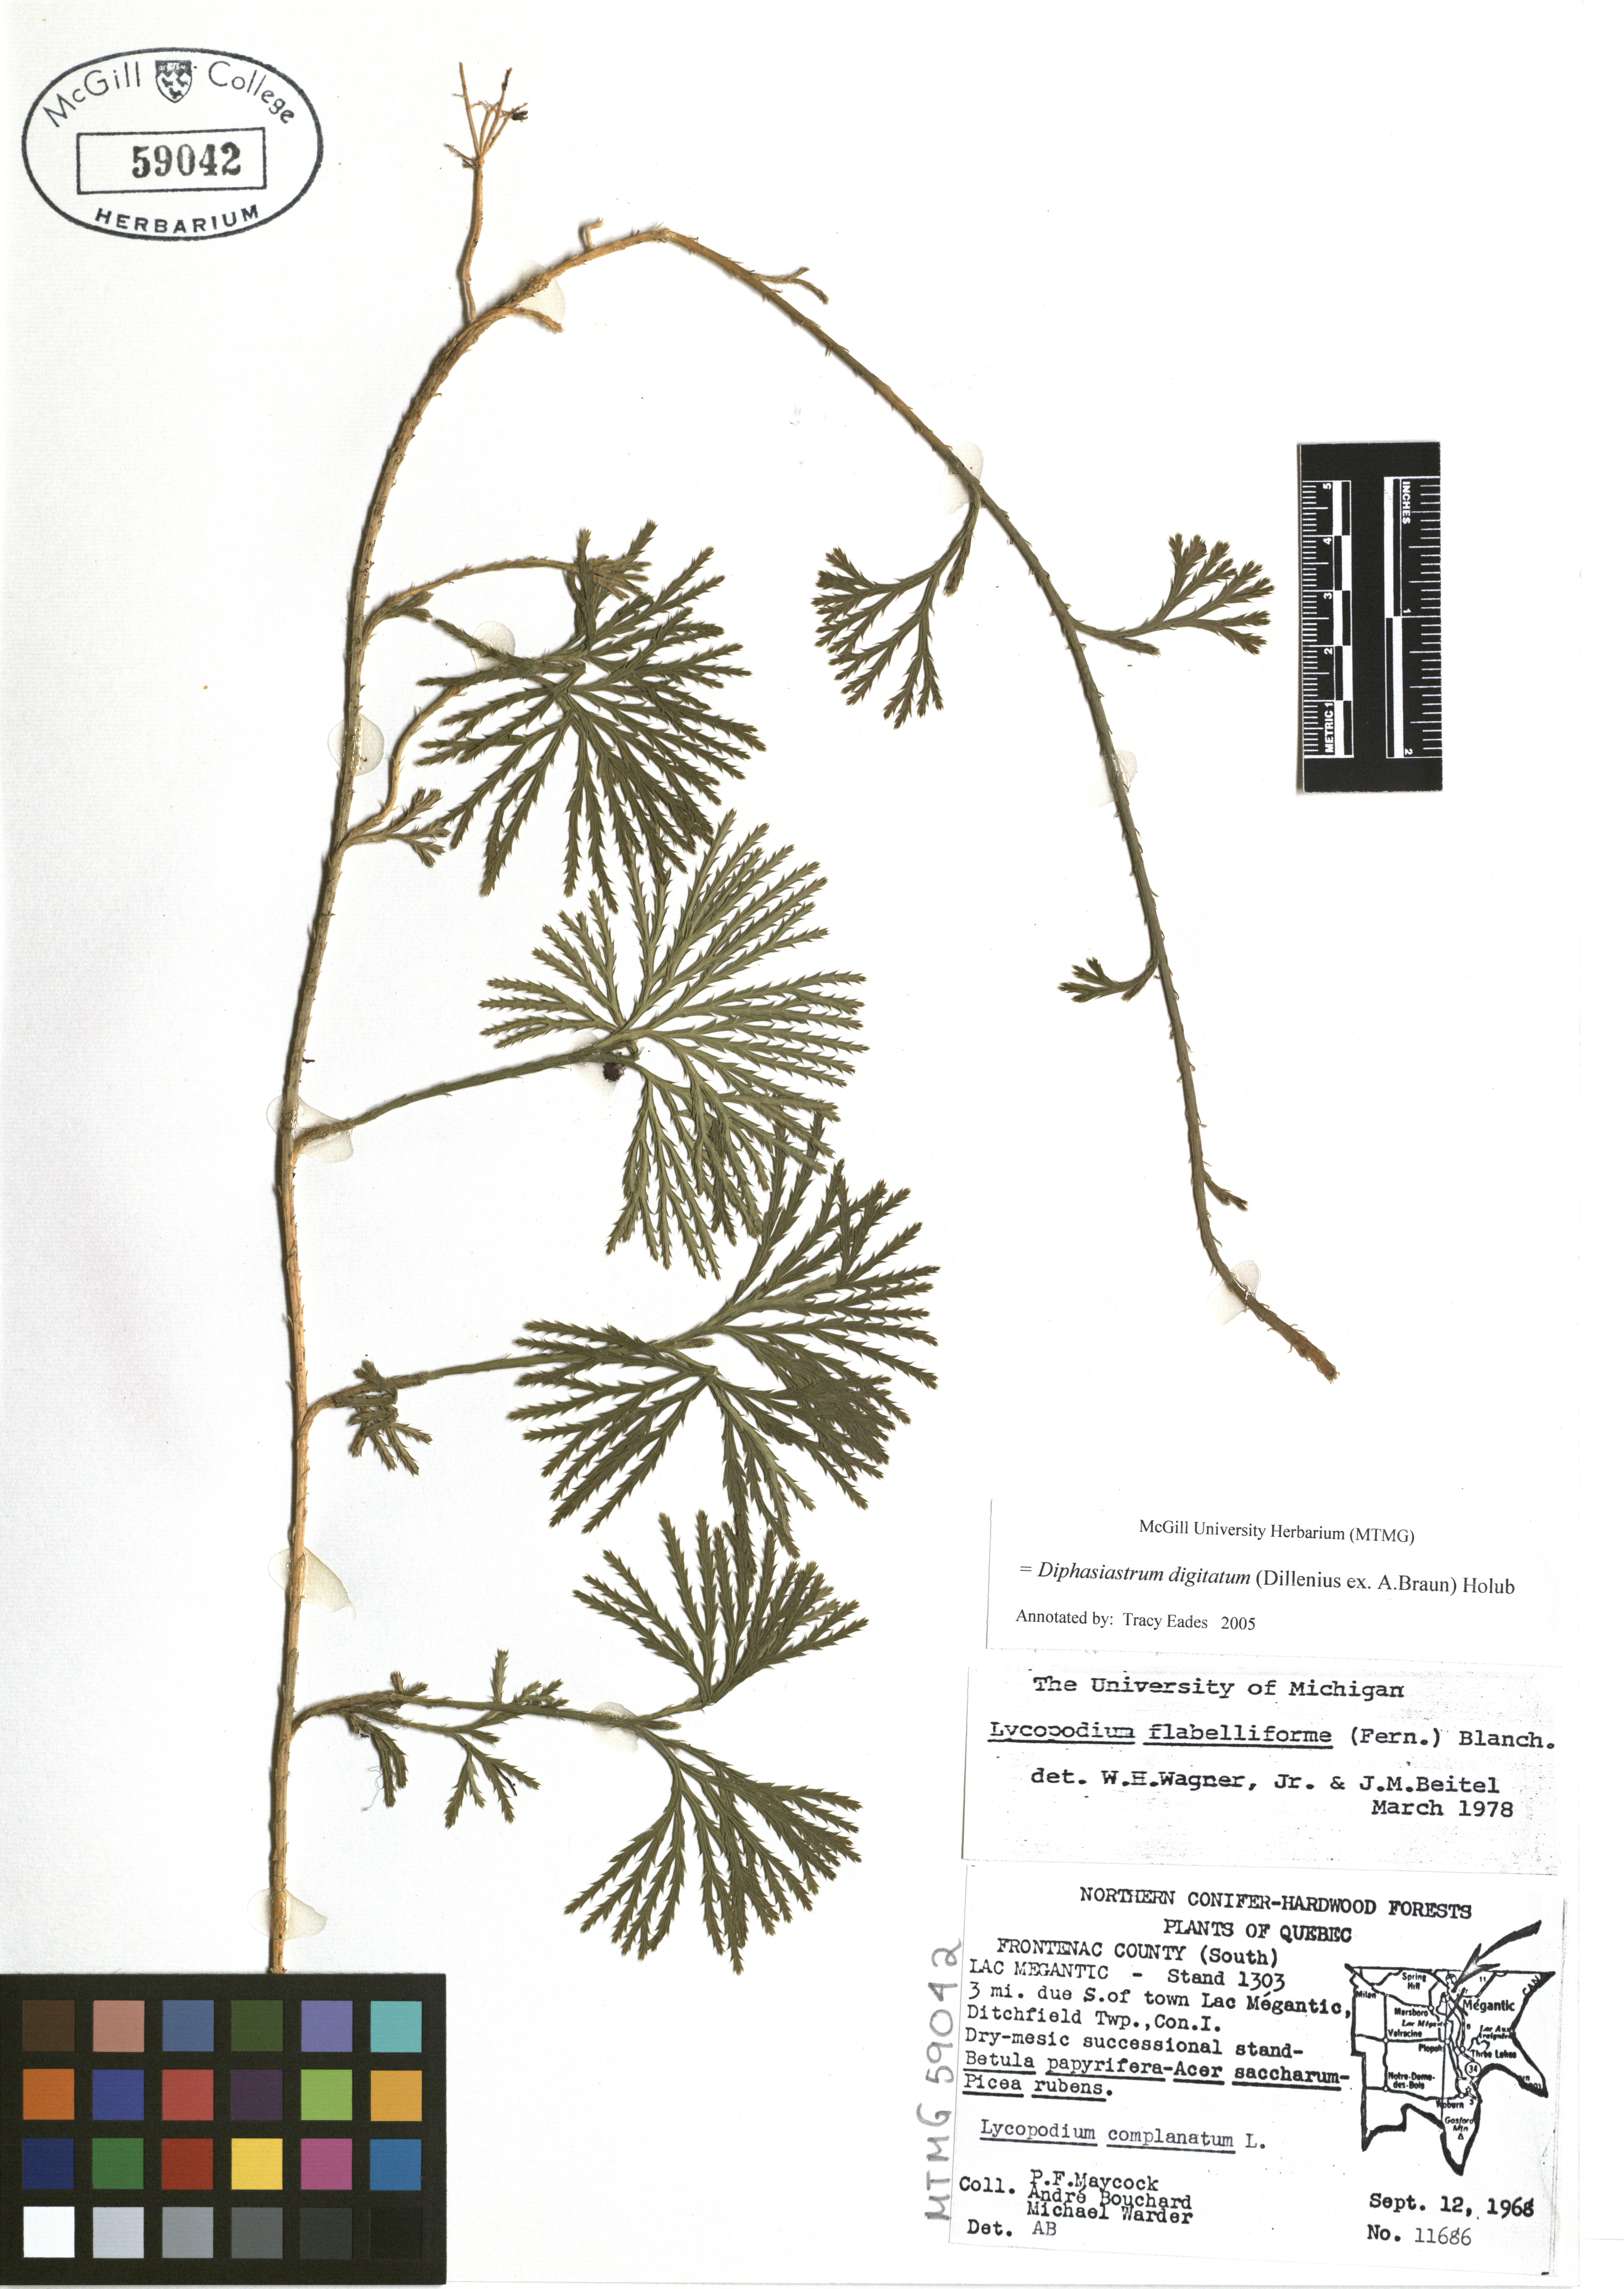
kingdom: Plantae
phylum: Tracheophyta
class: Lycopodiopsida
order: Lycopodiales
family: Lycopodiaceae
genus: Diphasiastrum
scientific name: Diphasiastrum digitatum
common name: Southern running-pine
